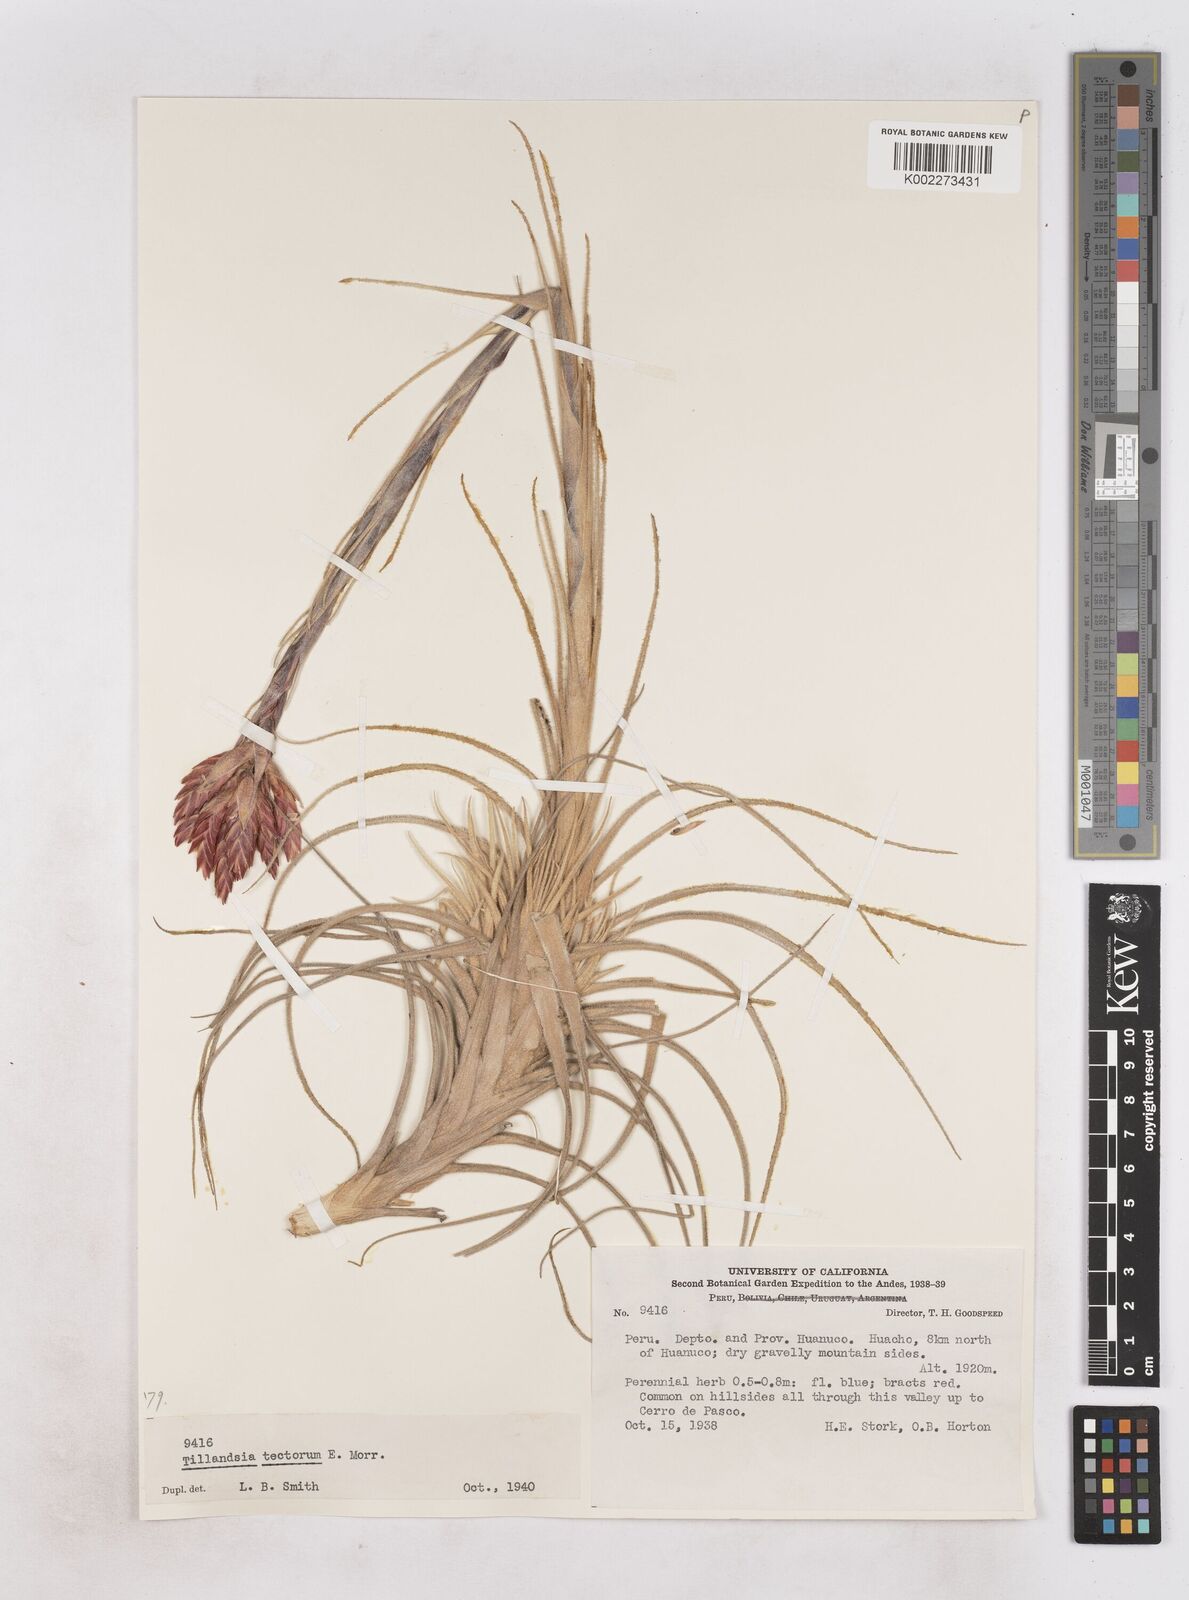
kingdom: Plantae
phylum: Tracheophyta
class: Liliopsida
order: Poales
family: Bromeliaceae
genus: Tillandsia
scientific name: Tillandsia tectorum
